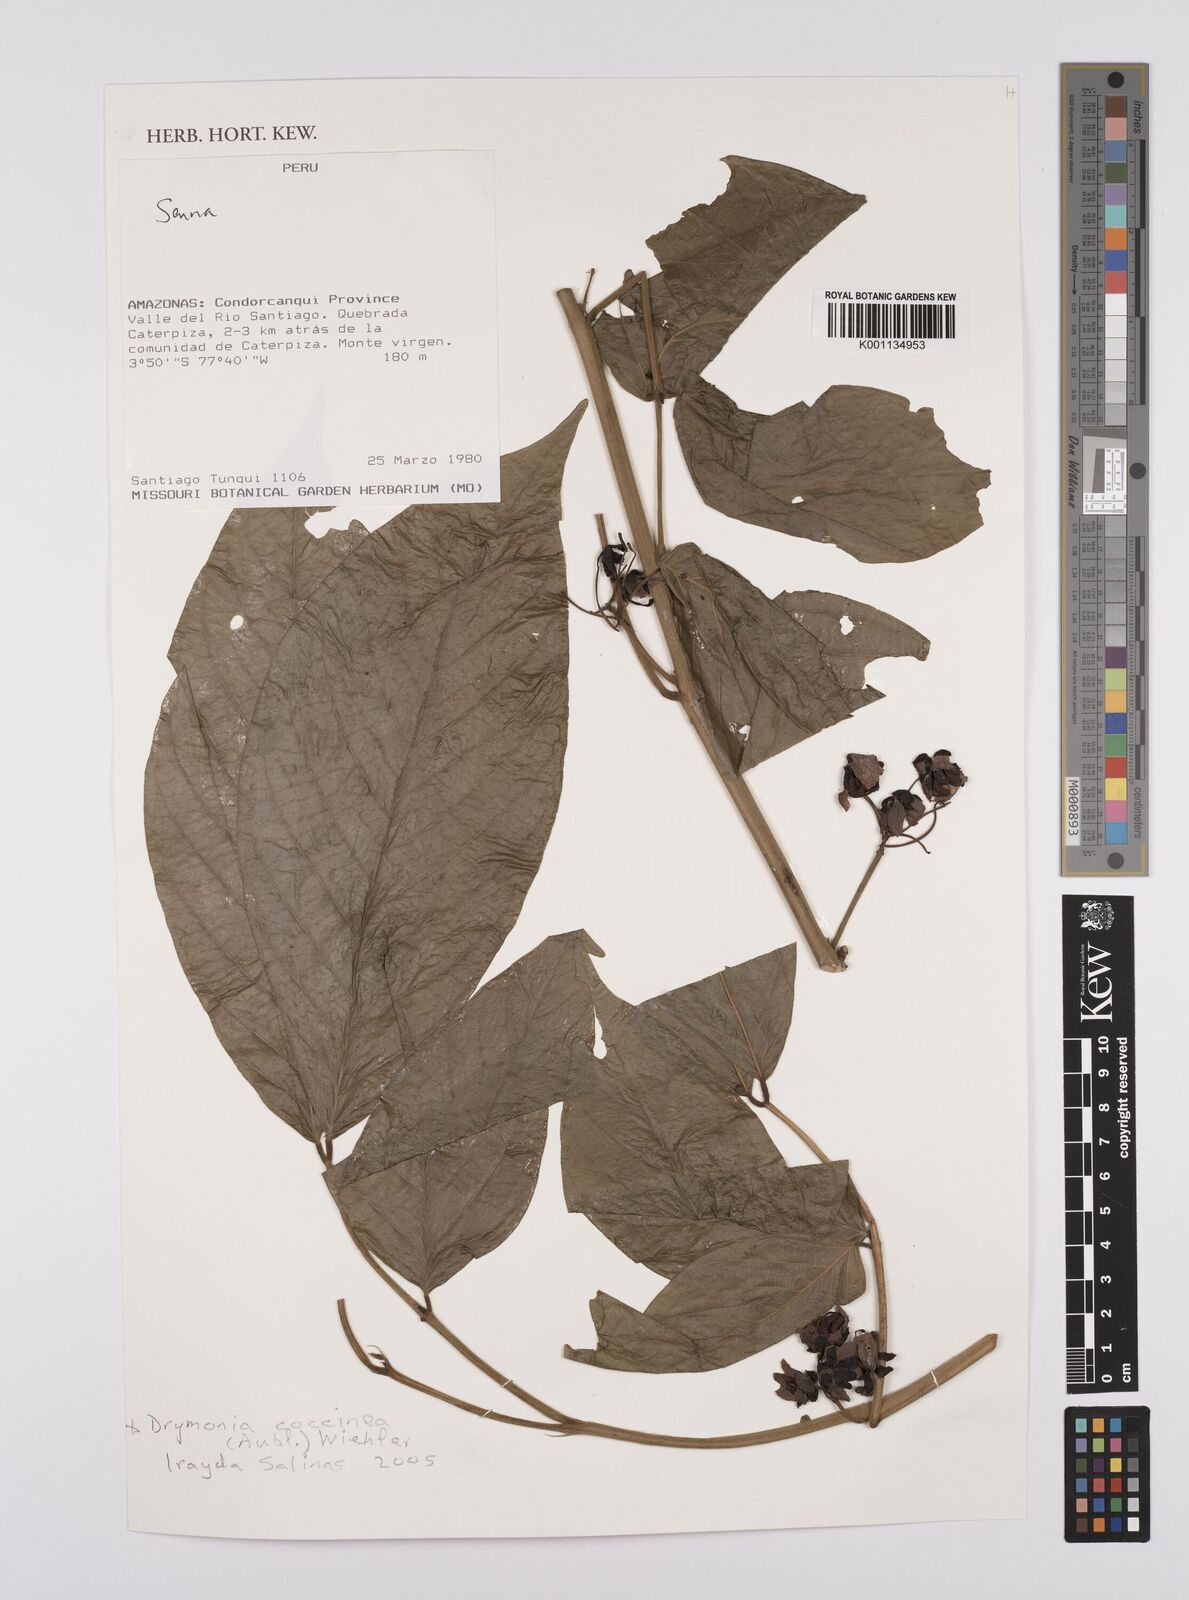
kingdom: Plantae
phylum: Tracheophyta
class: Magnoliopsida
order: Fabales
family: Fabaceae
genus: Senna
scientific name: Senna
